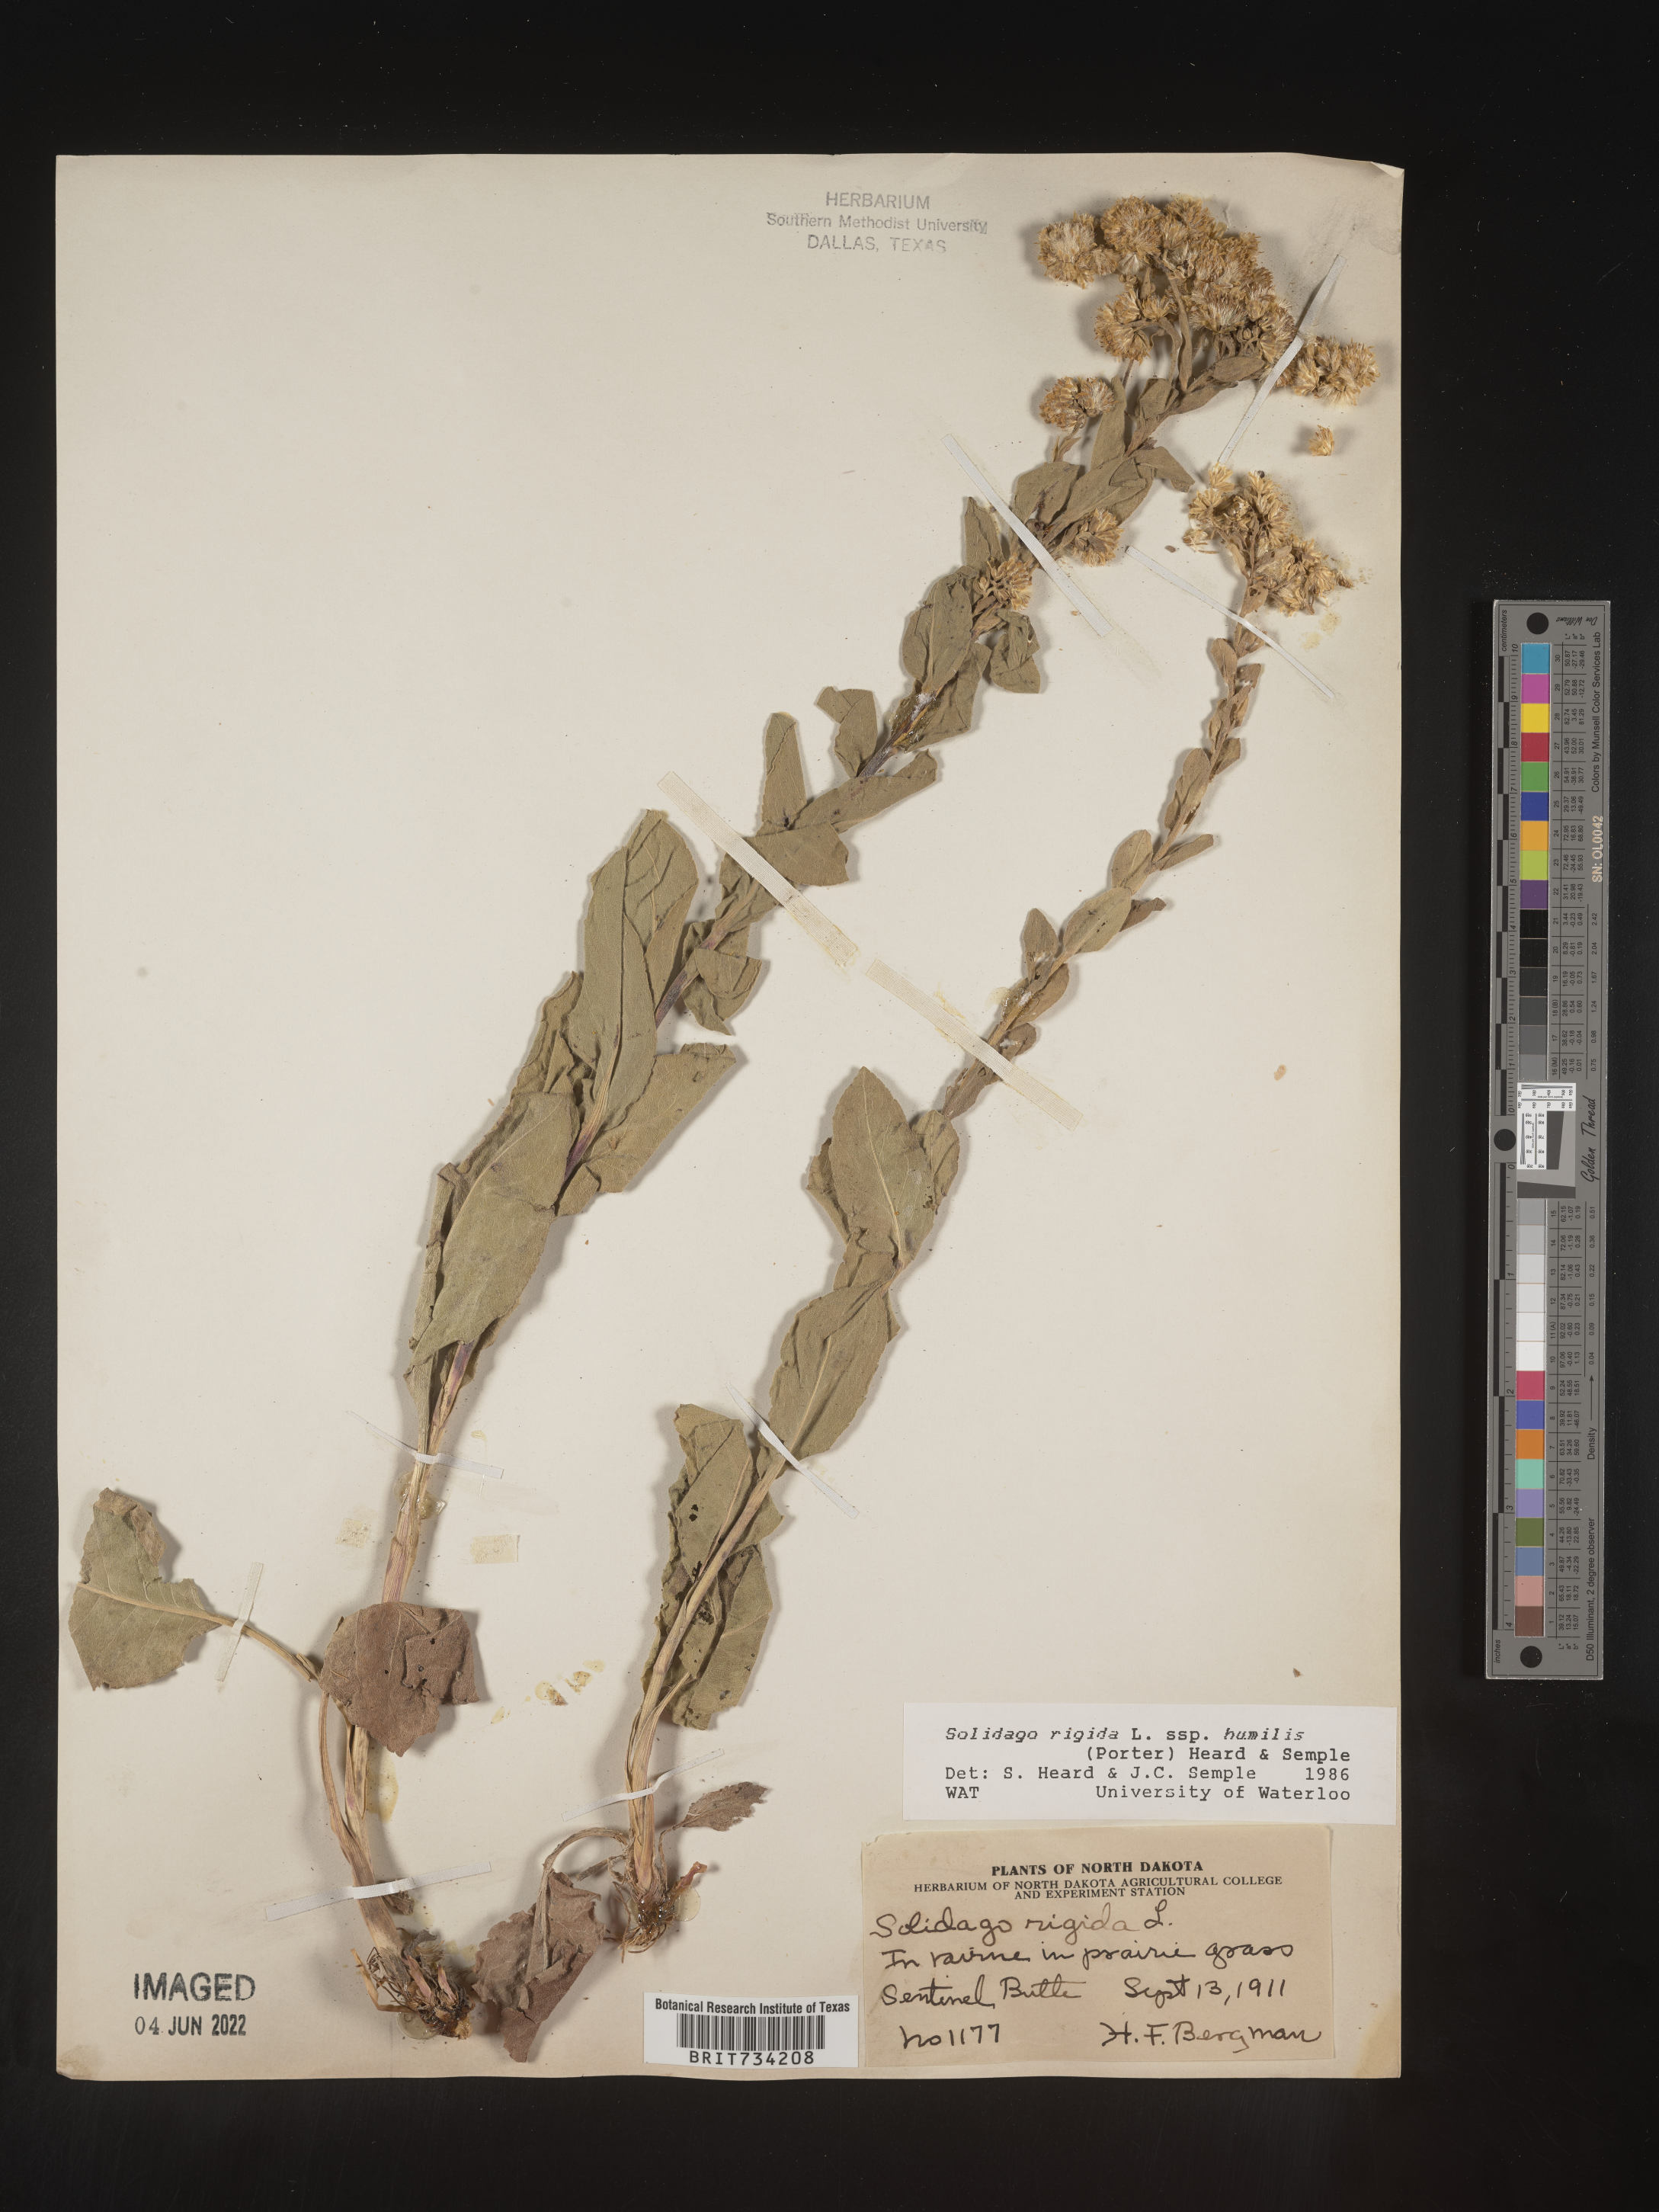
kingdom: Plantae
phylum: Tracheophyta
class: Magnoliopsida
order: Asterales
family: Asteraceae
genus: Solidago
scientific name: Solidago rigida
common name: Rigid goldenrod
